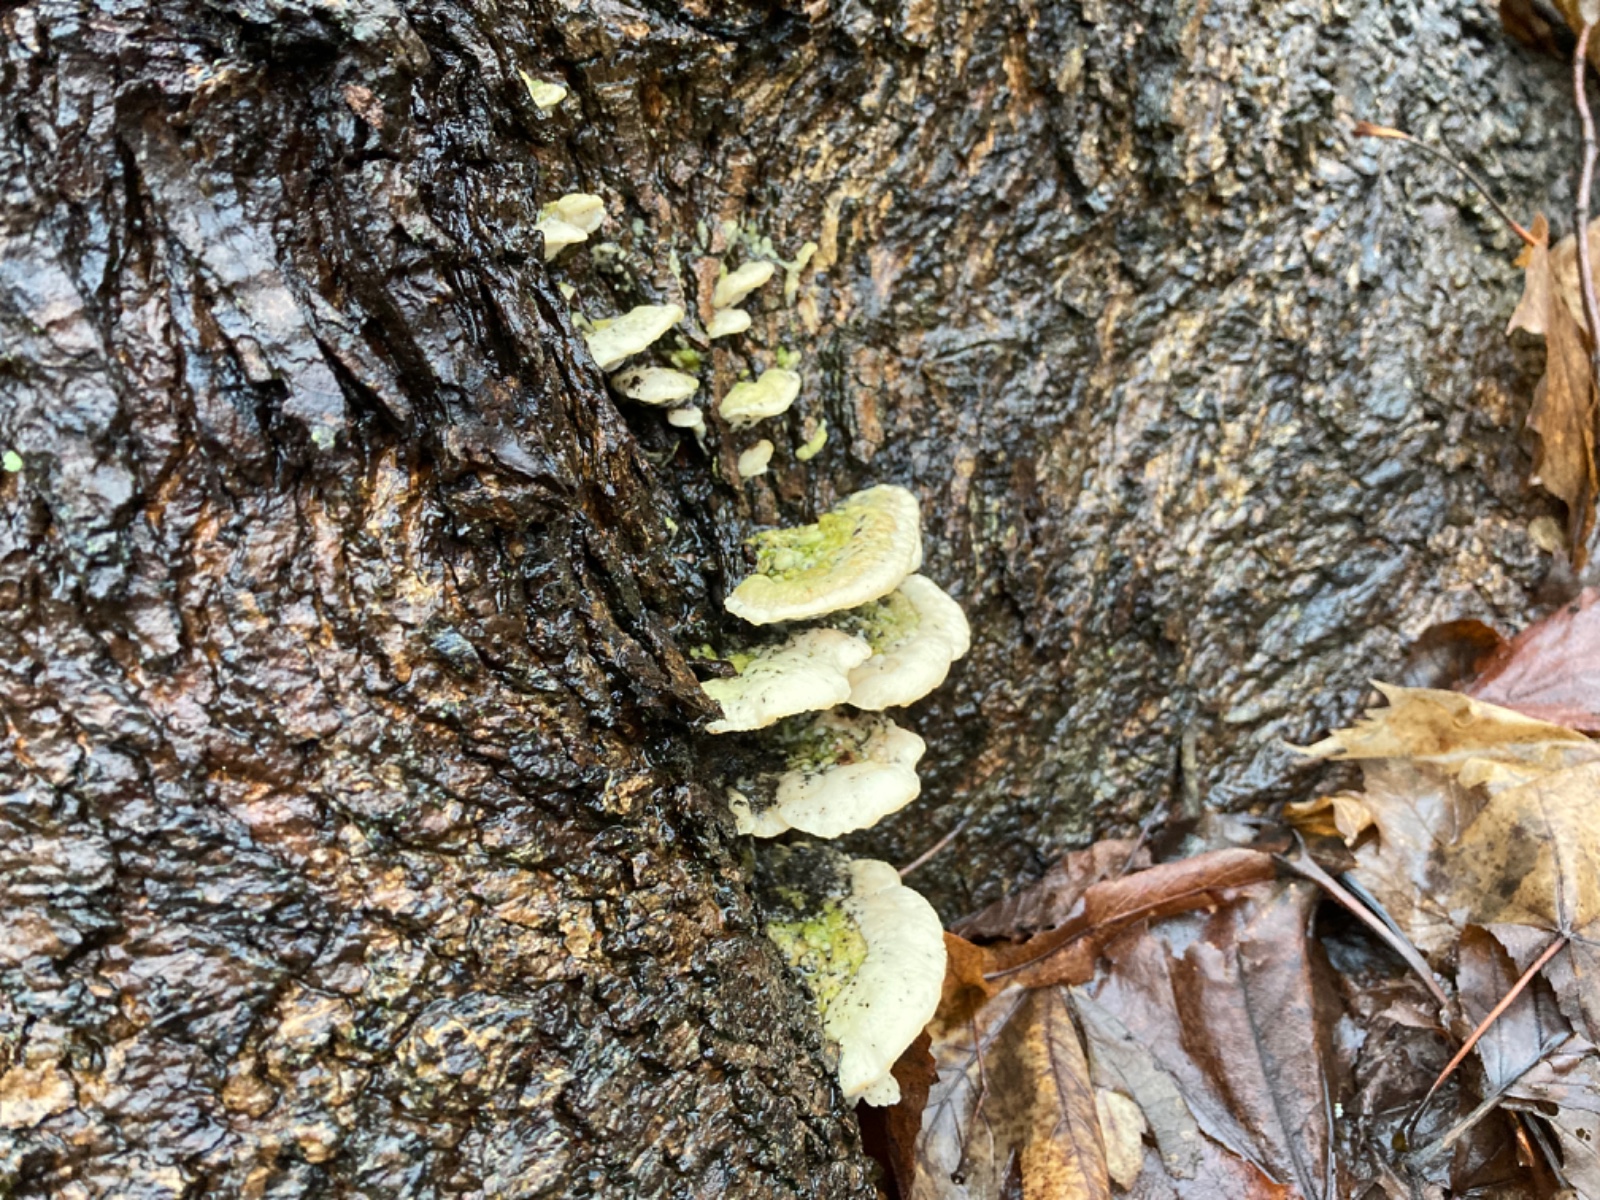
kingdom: Fungi
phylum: Basidiomycota
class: Agaricomycetes
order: Hymenochaetales
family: Oxyporaceae
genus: Oxyporus
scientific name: Oxyporus populinus
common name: sammenvokset trylleporesvamp
